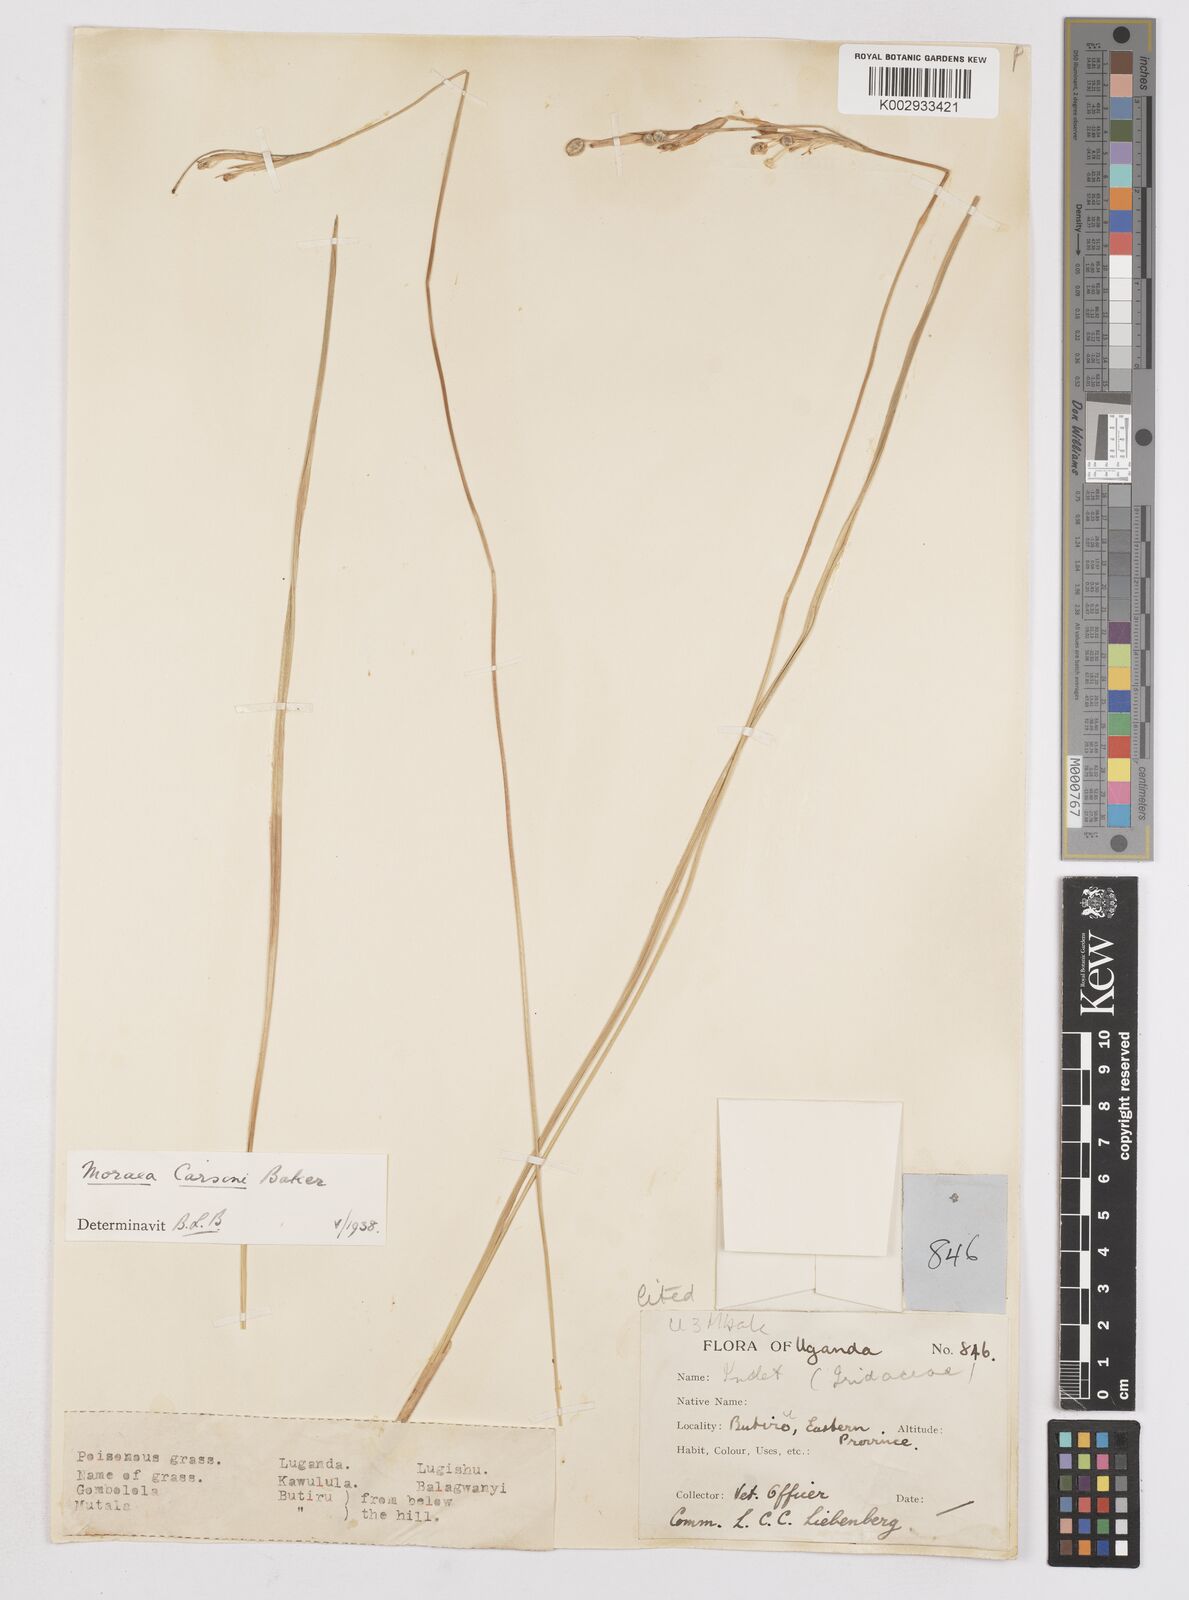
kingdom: Plantae
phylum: Tracheophyta
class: Liliopsida
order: Asparagales
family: Iridaceae
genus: Moraea
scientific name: Moraea afro-orientalis
